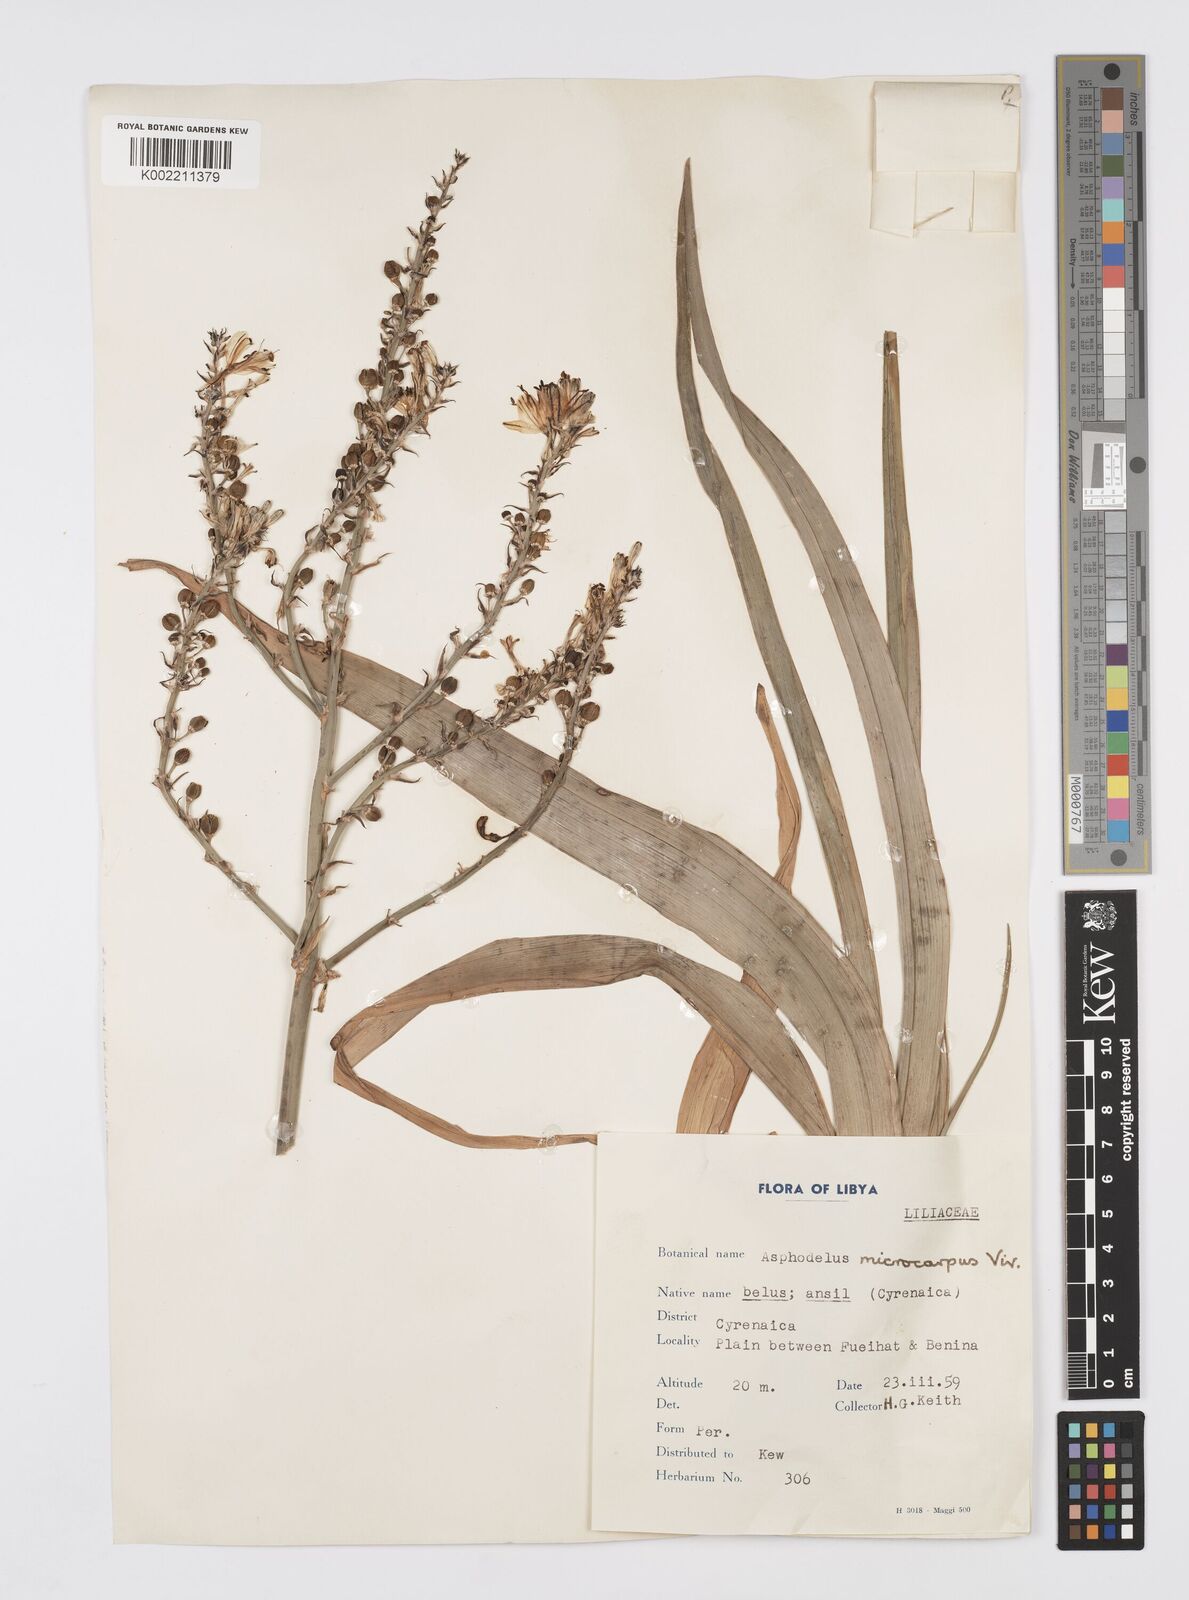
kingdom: Plantae
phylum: Tracheophyta
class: Liliopsida
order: Asparagales
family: Asphodelaceae
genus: Asphodelus
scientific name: Asphodelus ramosus
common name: Silverrod
